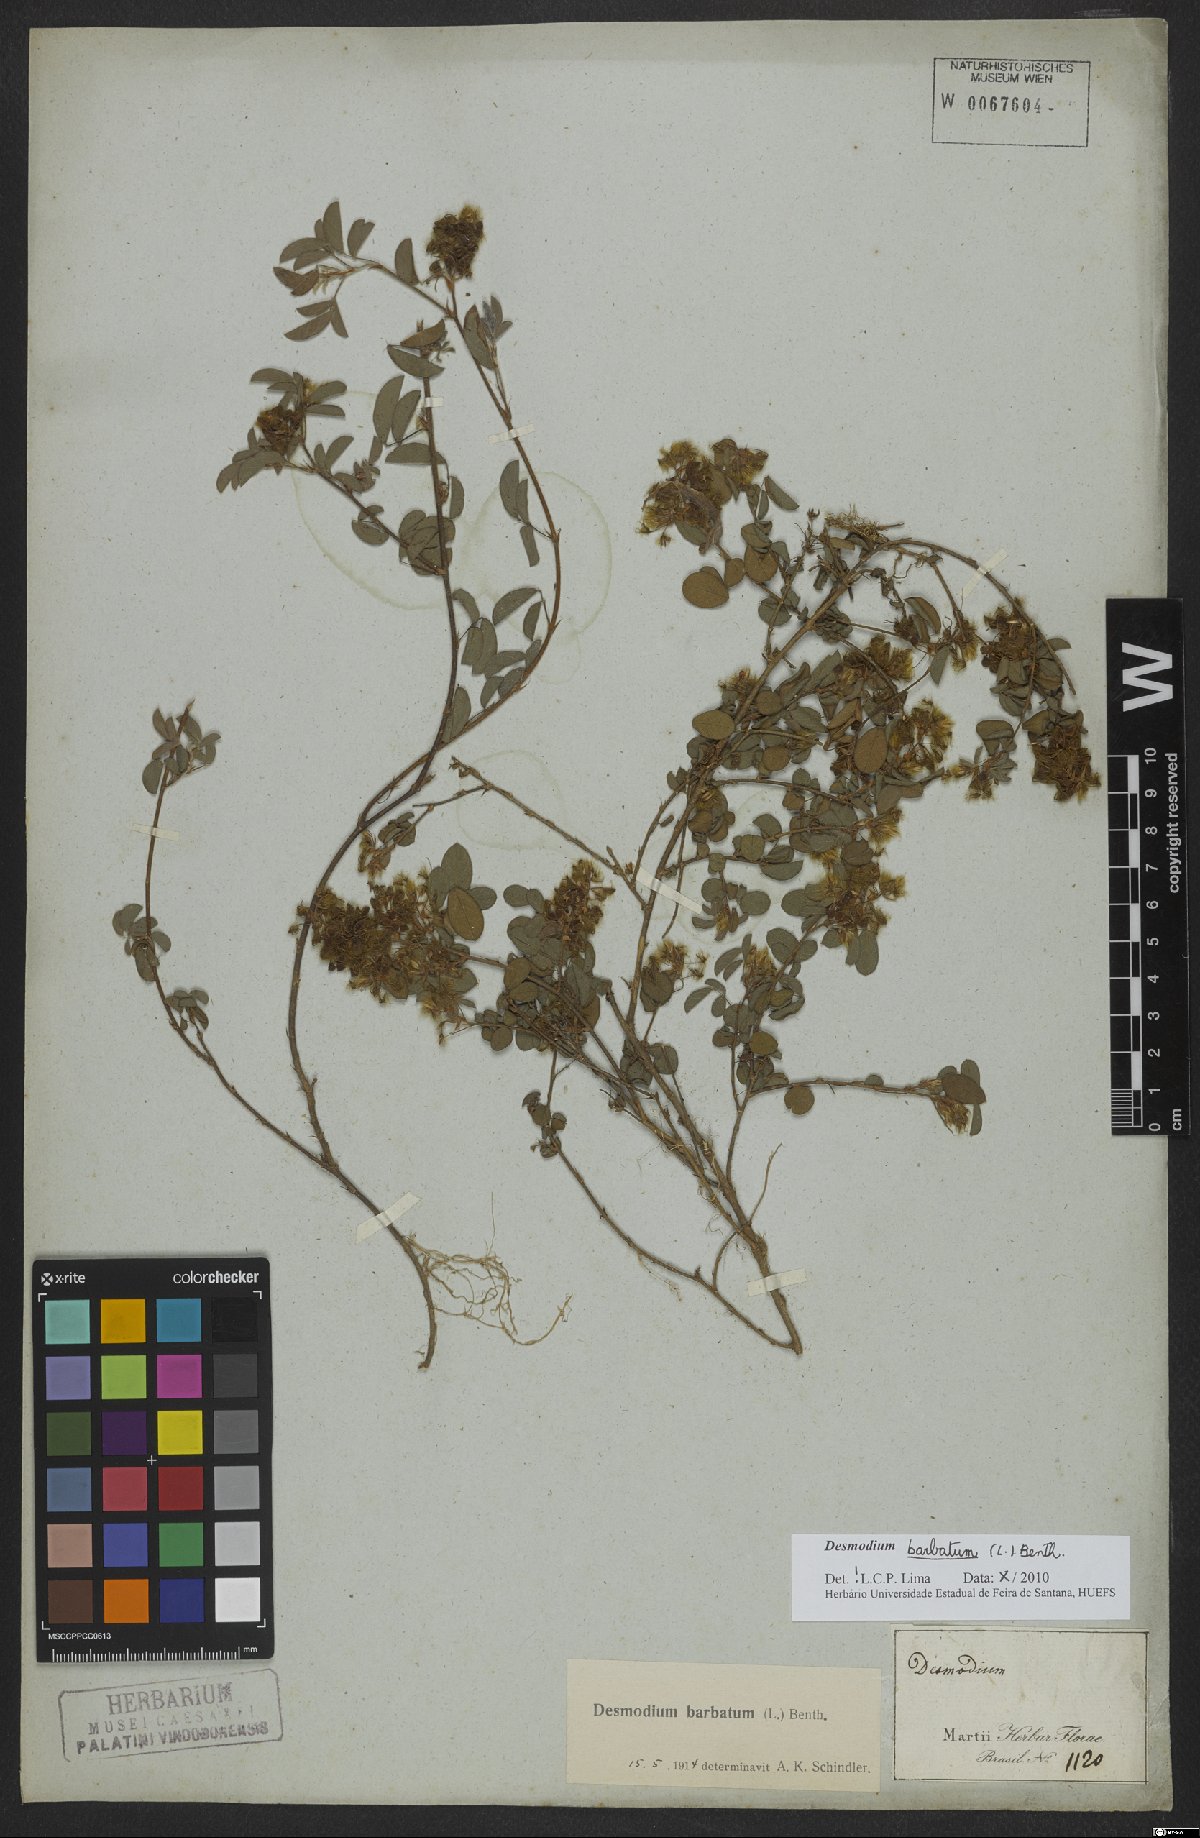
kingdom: Plantae
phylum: Tracheophyta
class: Magnoliopsida
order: Fabales
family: Fabaceae
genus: Grona
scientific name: Grona barbata
